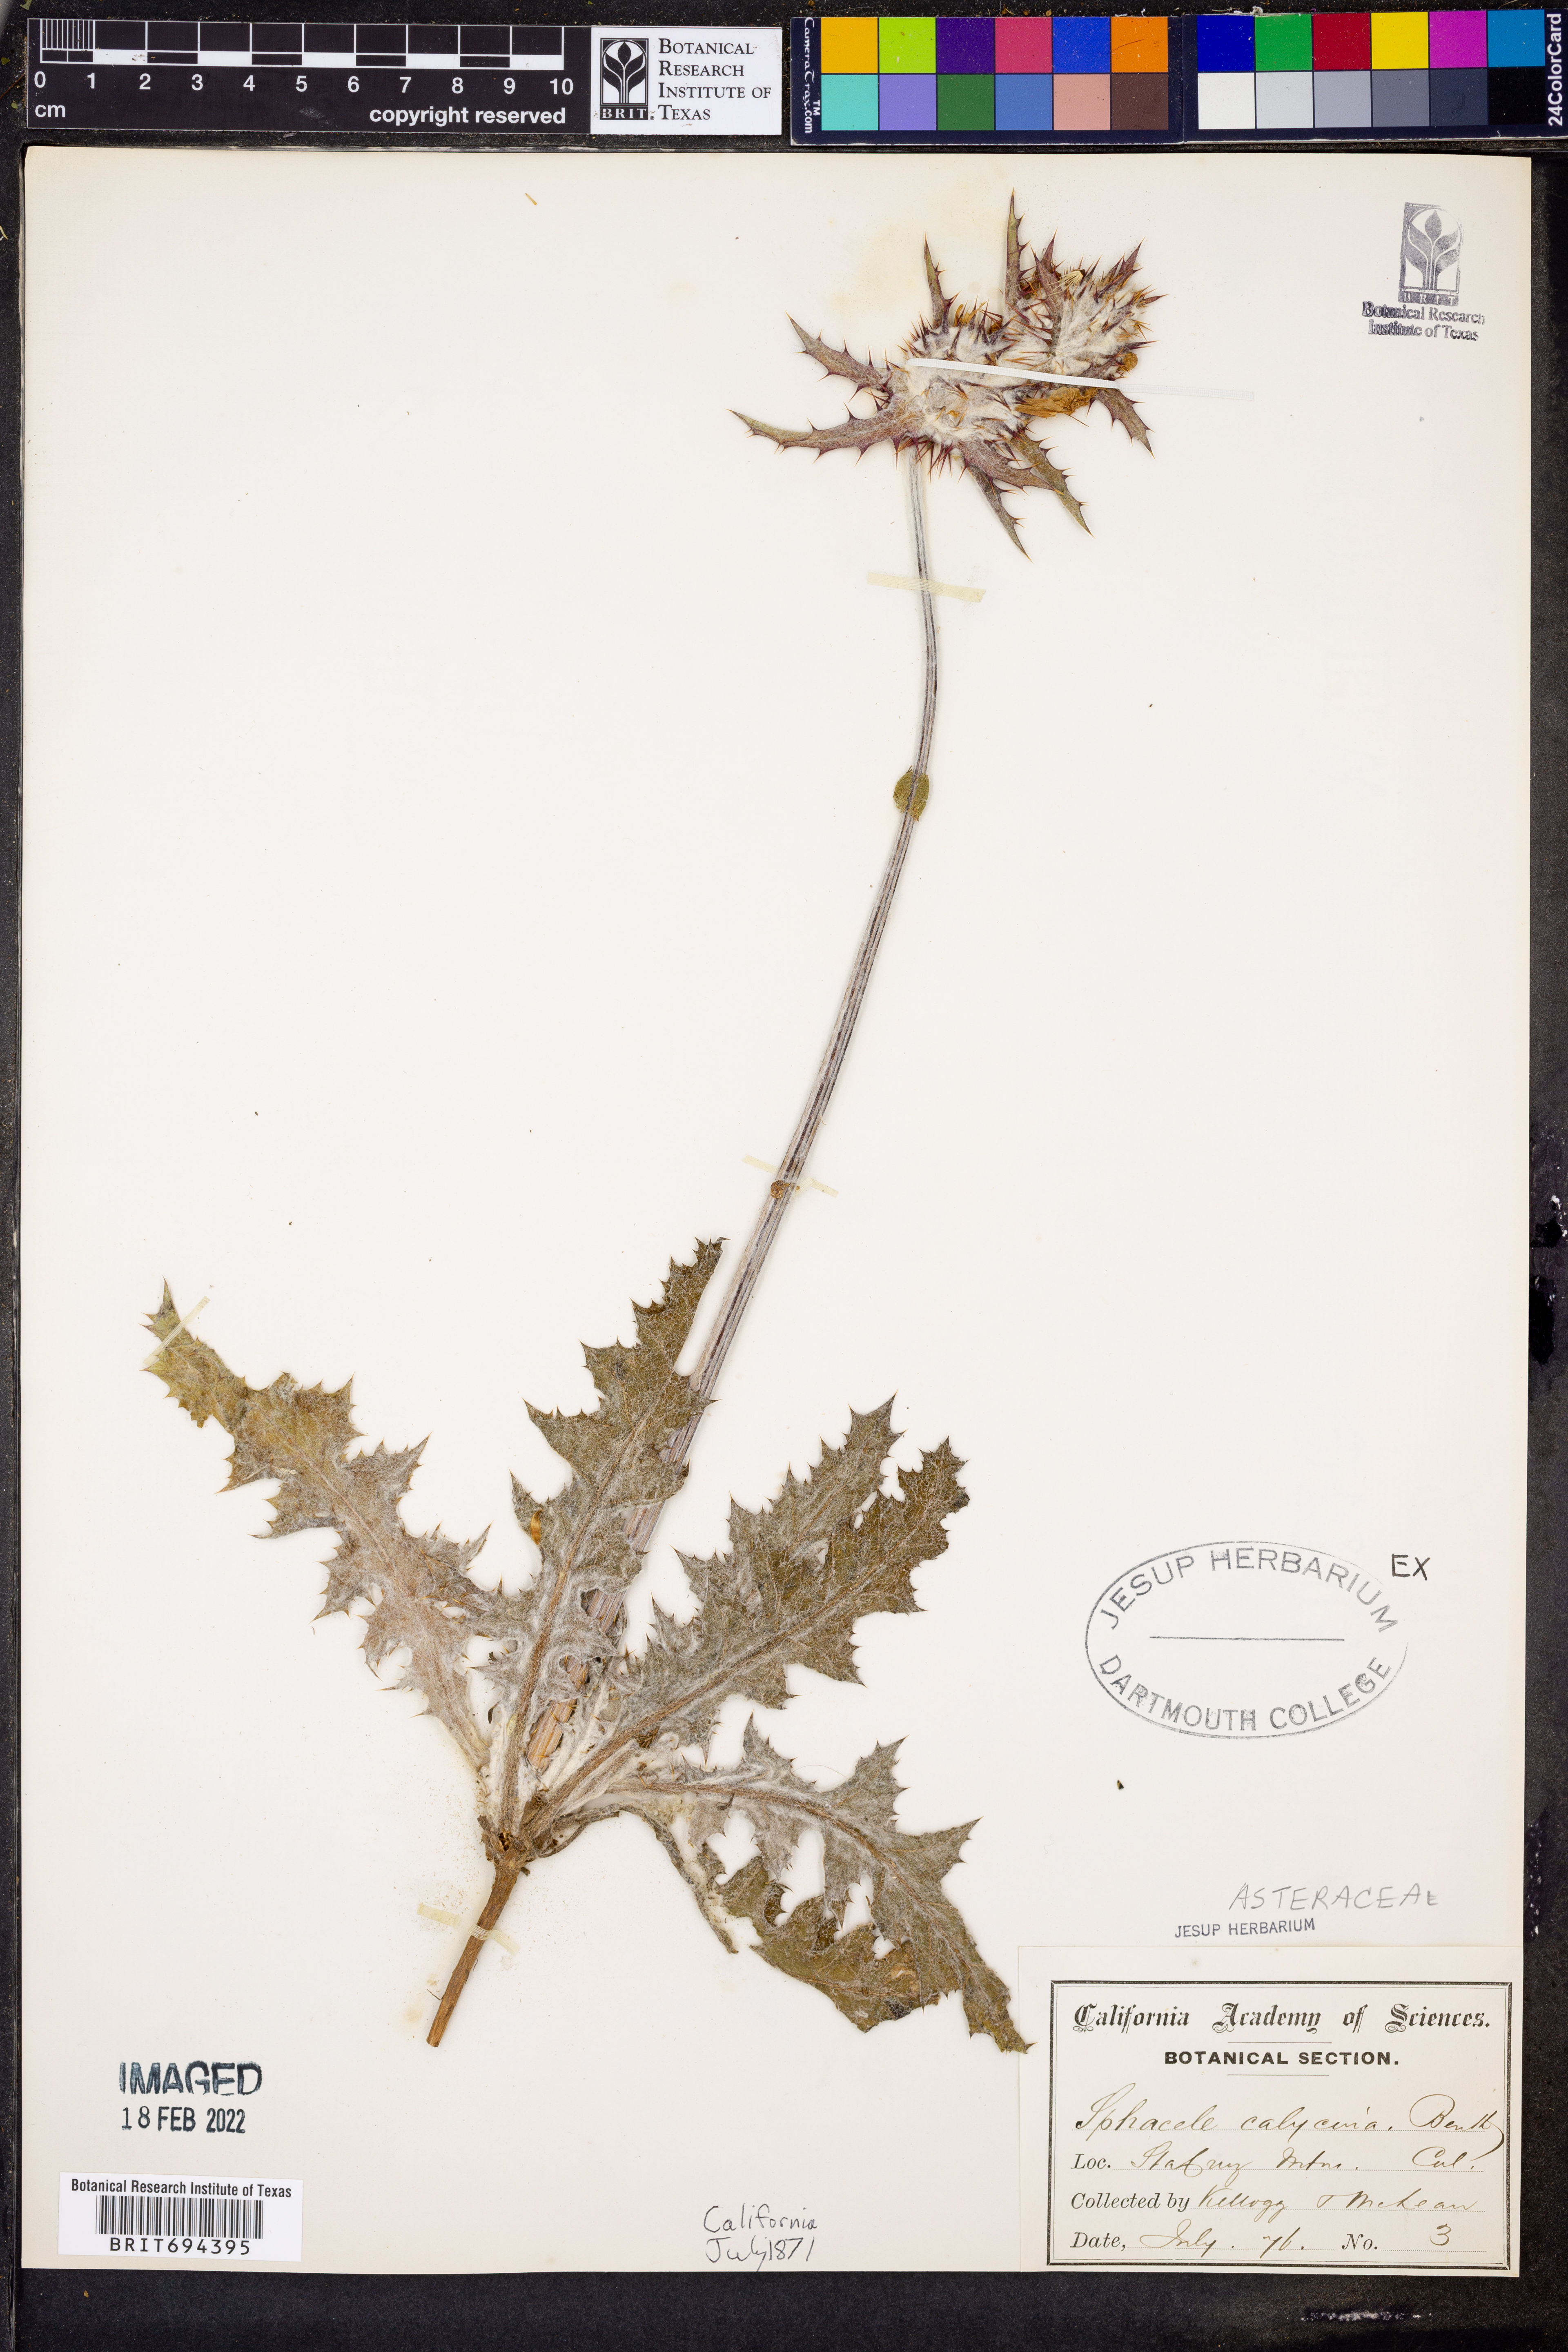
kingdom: Plantae
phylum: Tracheophyta
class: Magnoliopsida
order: Lamiales
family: Lamiaceae
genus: Lepechinia
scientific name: Lepechinia
